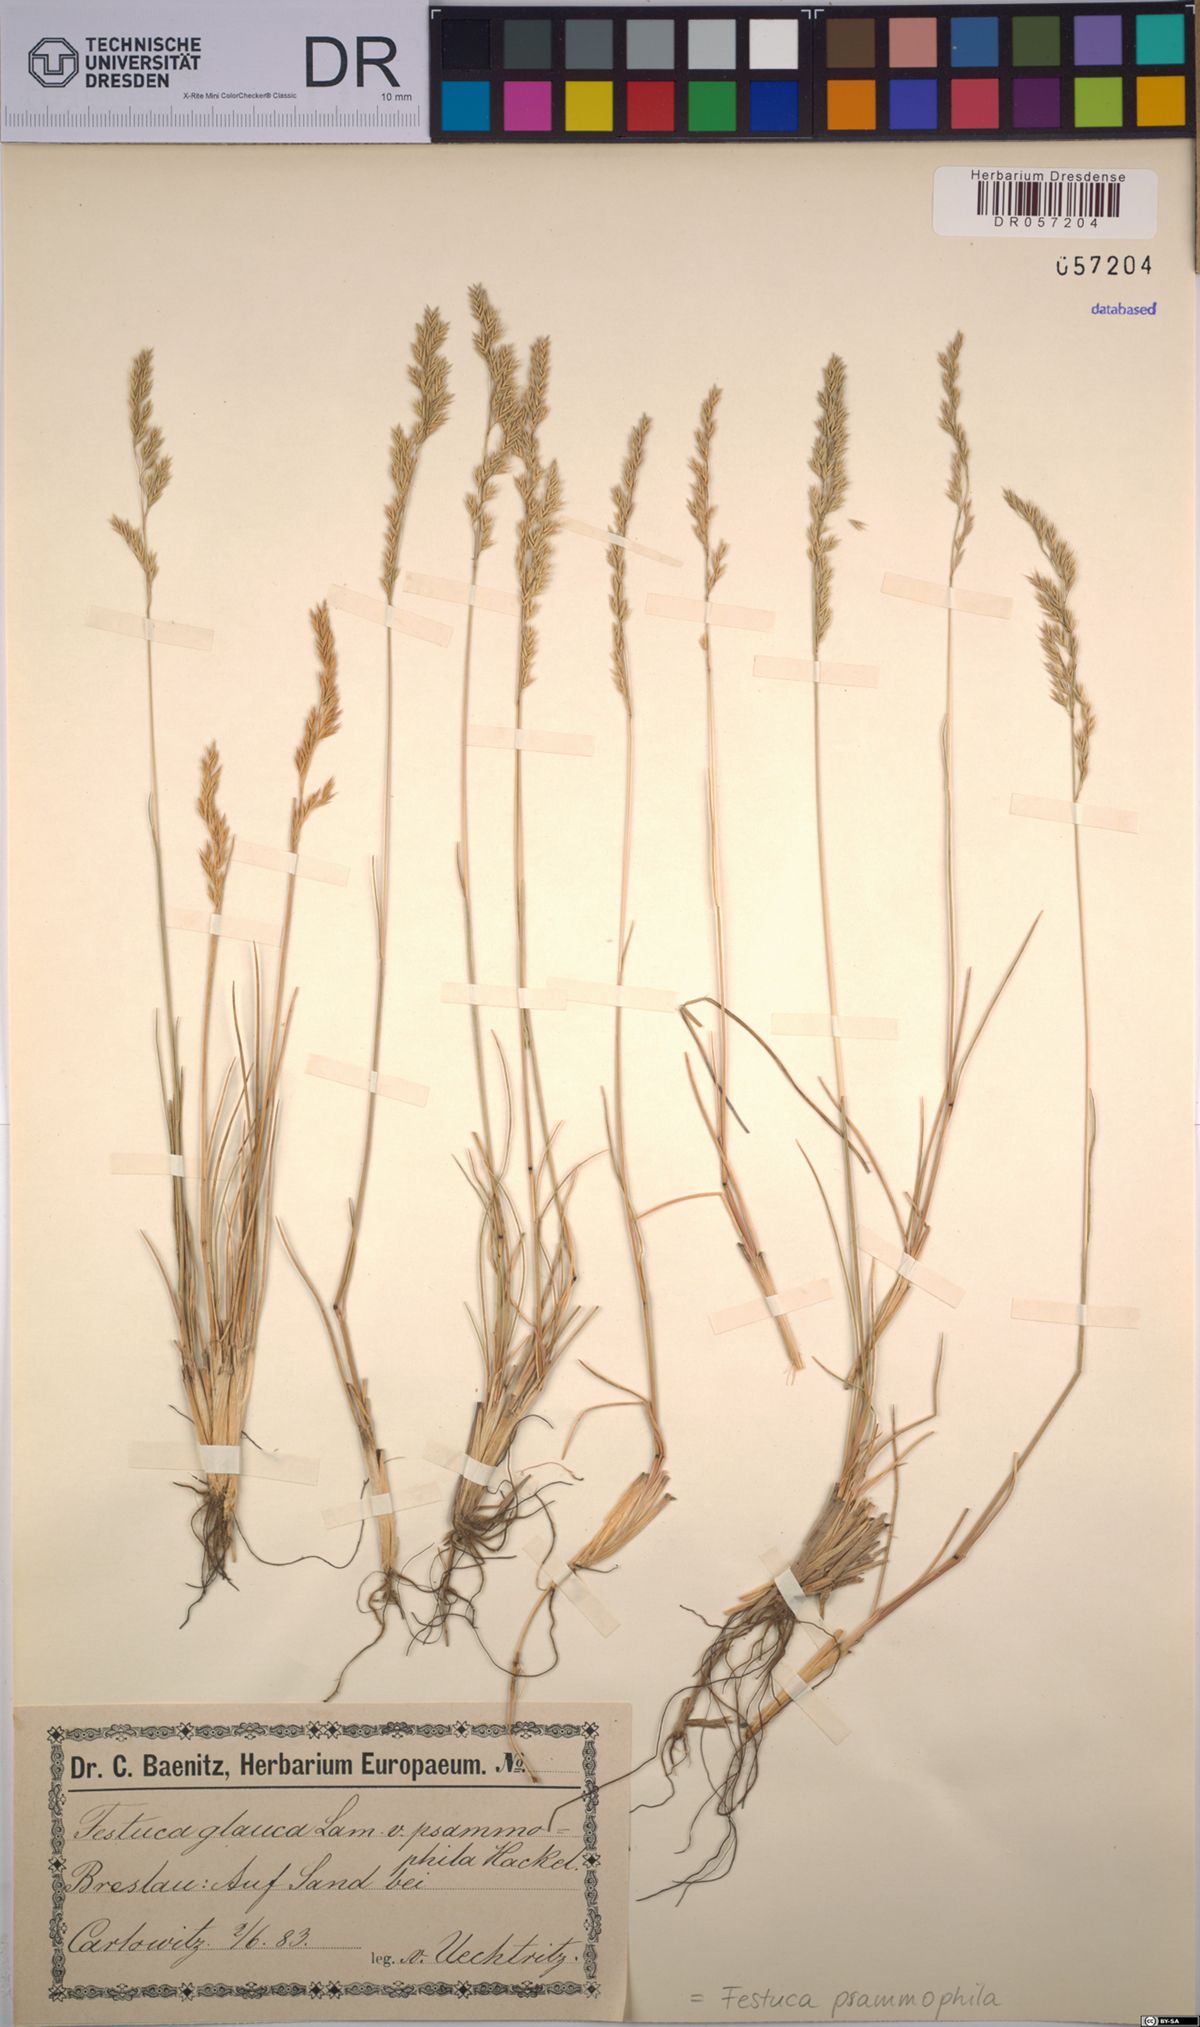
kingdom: Plantae
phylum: Tracheophyta
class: Liliopsida
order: Poales
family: Poaceae
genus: Festuca
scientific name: Festuca psammophila
